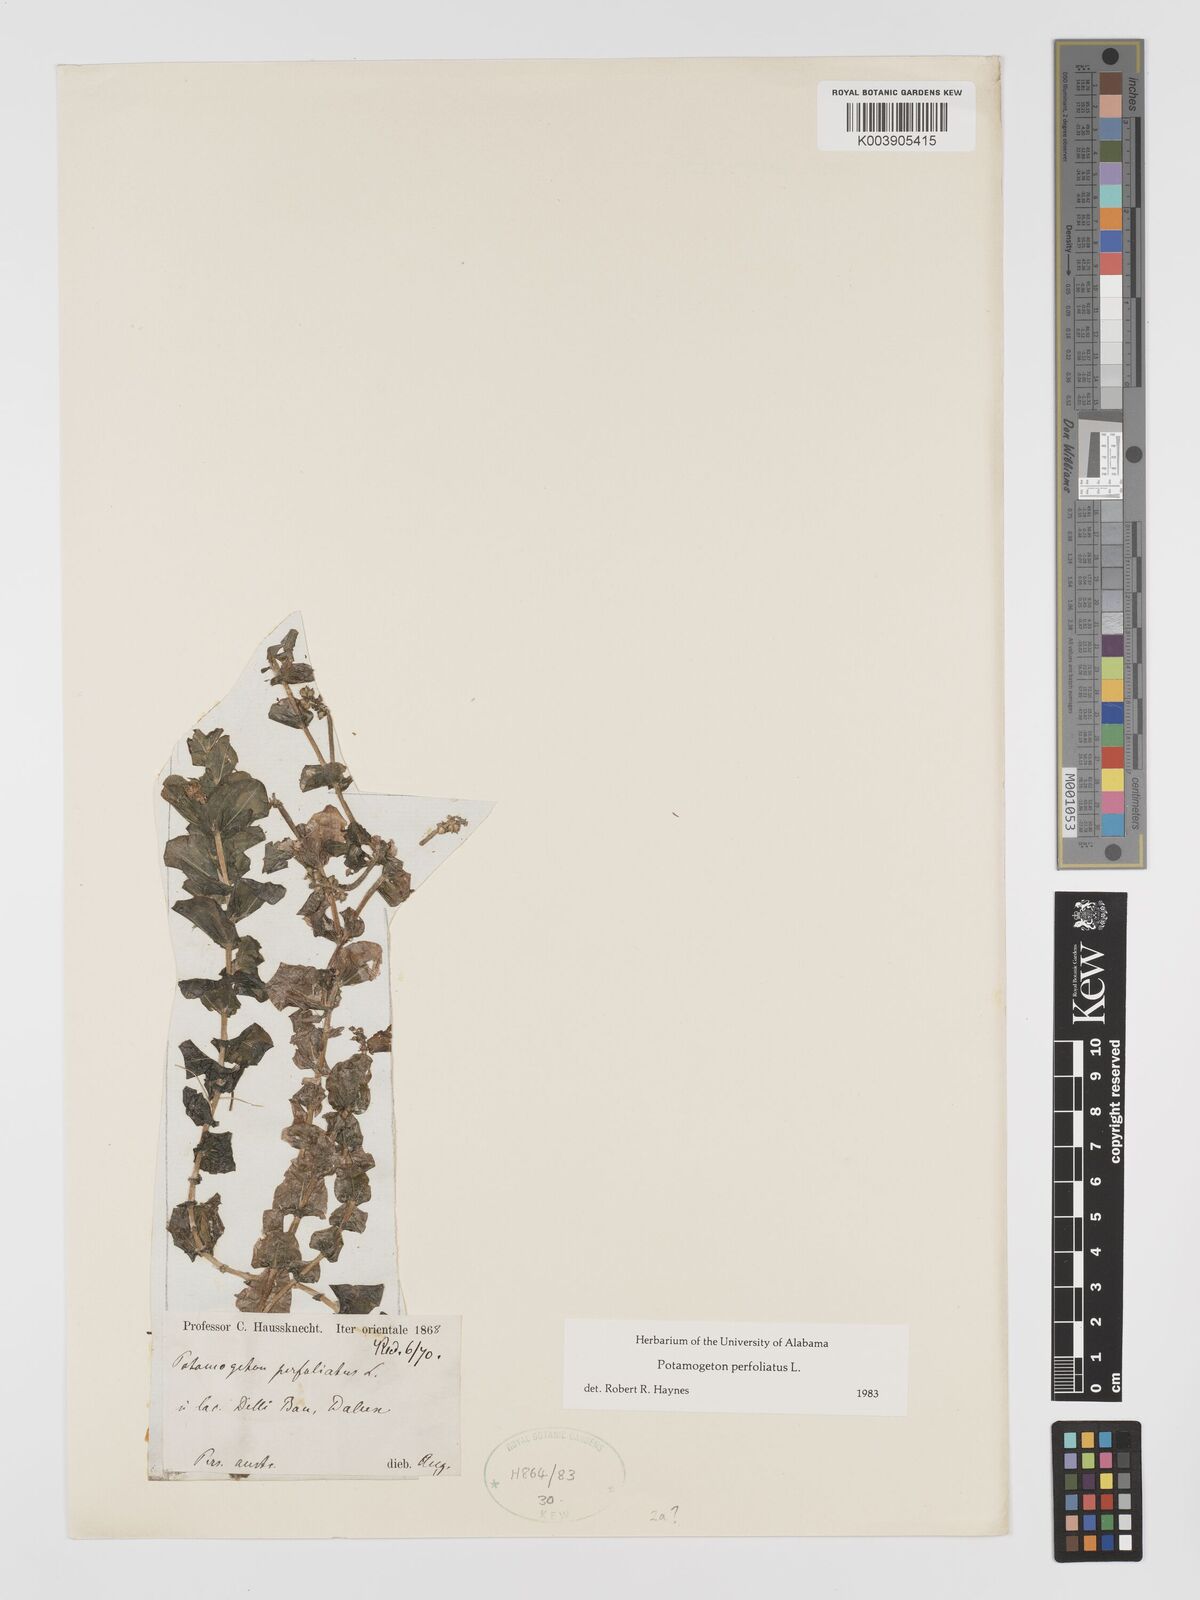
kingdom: Plantae
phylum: Tracheophyta
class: Liliopsida
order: Alismatales
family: Potamogetonaceae
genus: Potamogeton
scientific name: Potamogeton perfoliatus
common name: Perfoliate pondweed
